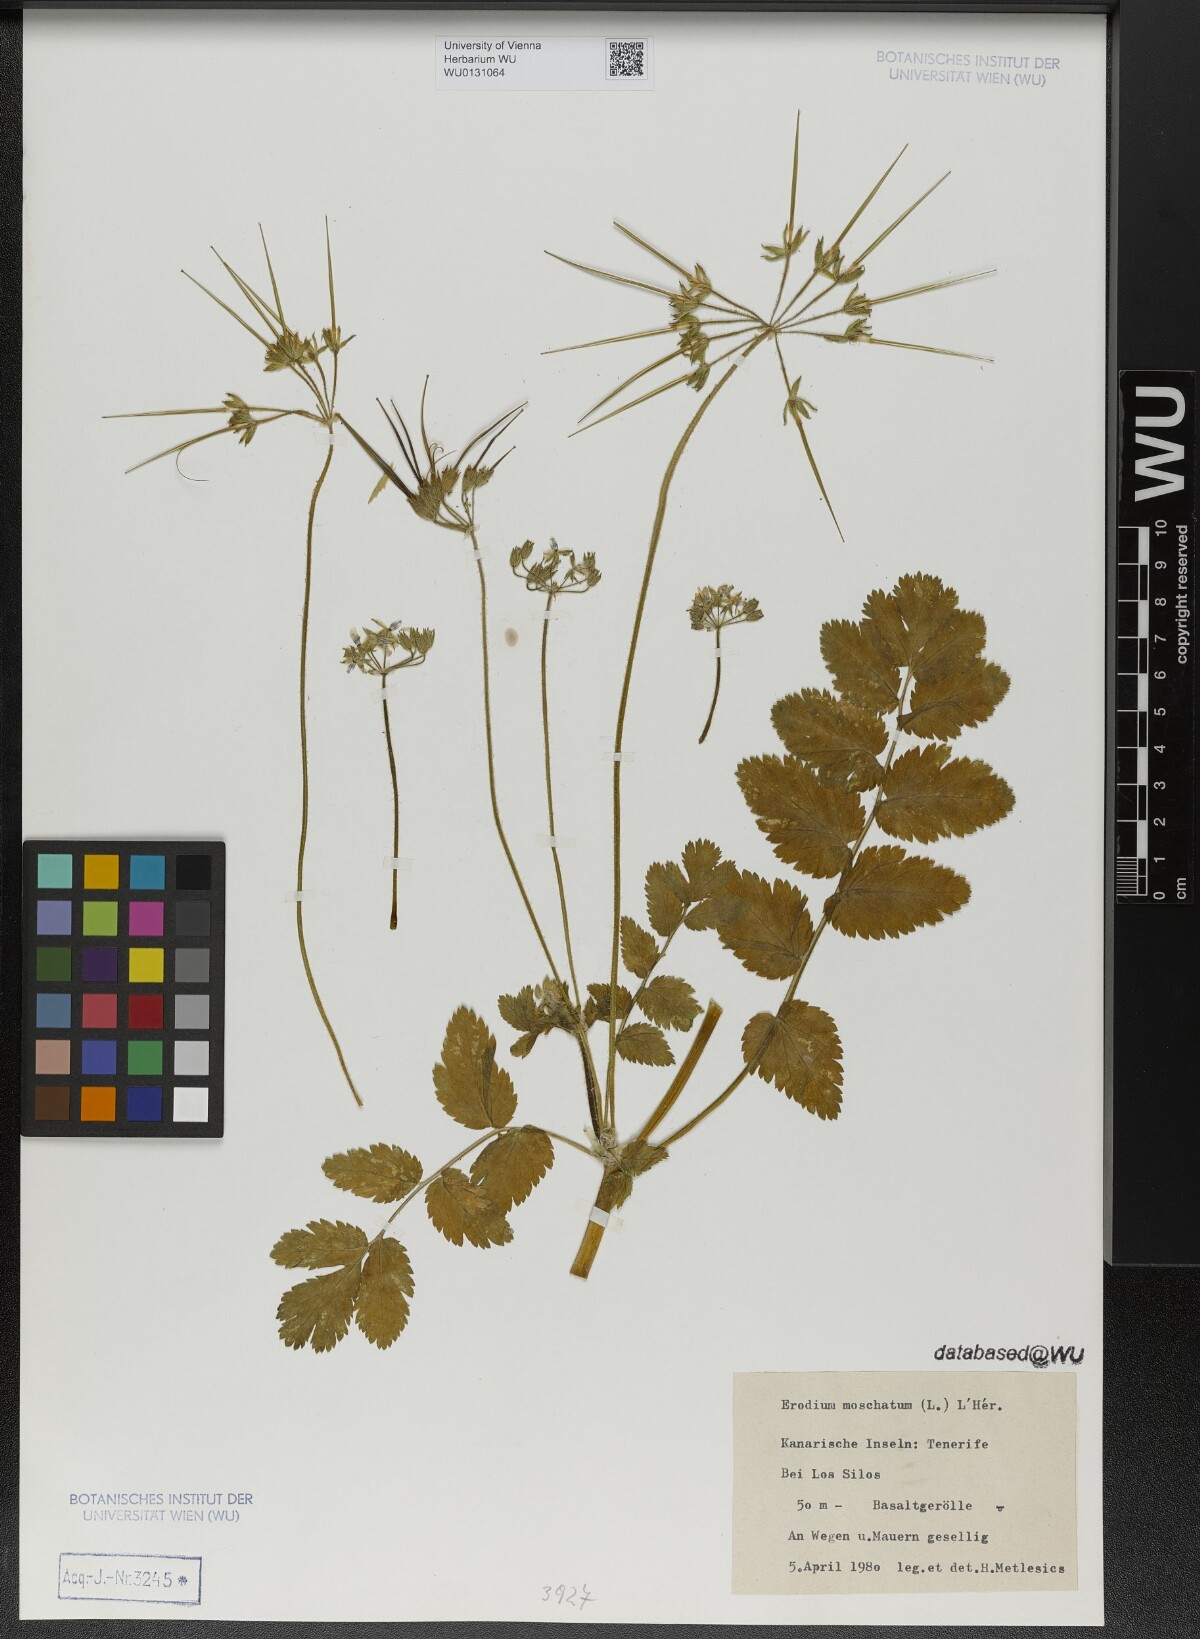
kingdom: Plantae
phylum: Tracheophyta
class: Magnoliopsida
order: Geraniales
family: Geraniaceae
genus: Erodium
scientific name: Erodium moschatum
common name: Musk stork's-bill
